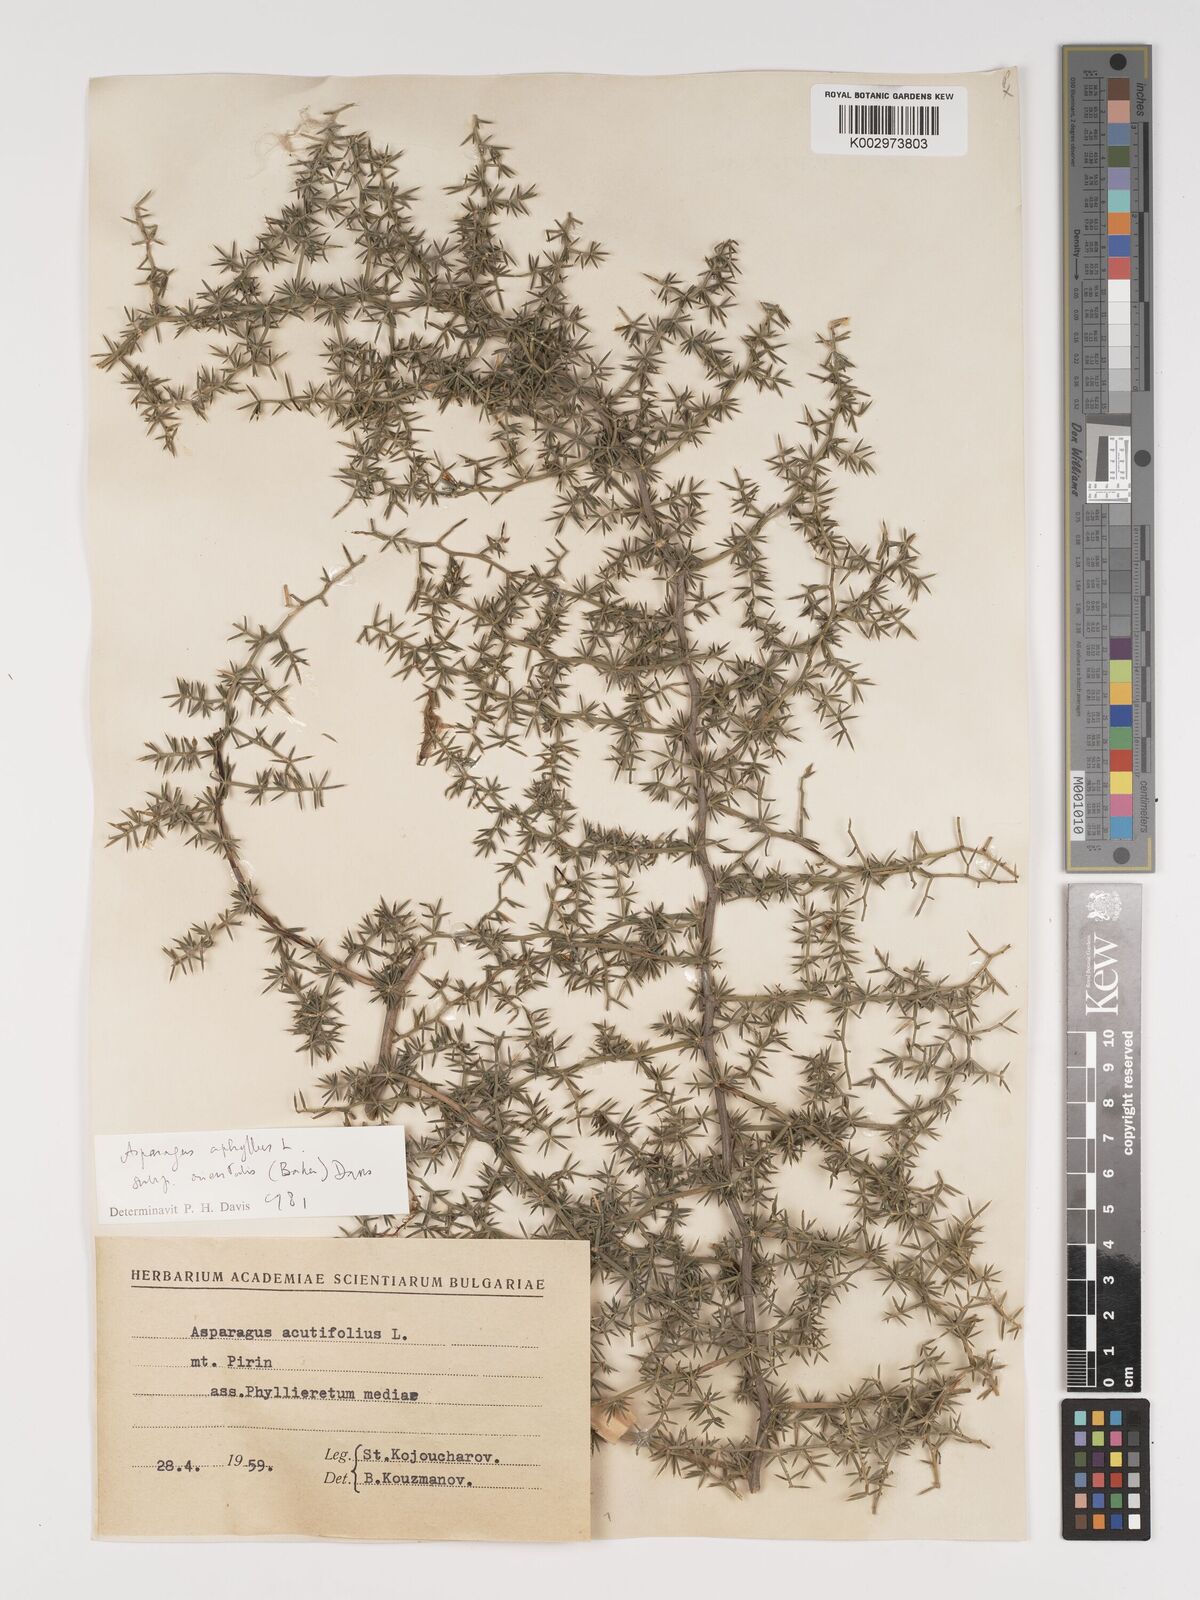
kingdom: Plantae
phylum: Tracheophyta
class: Liliopsida
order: Asparagales
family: Asparagaceae
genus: Asparagus
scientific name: Asparagus aphyllus
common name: Mediterranean asparagus
